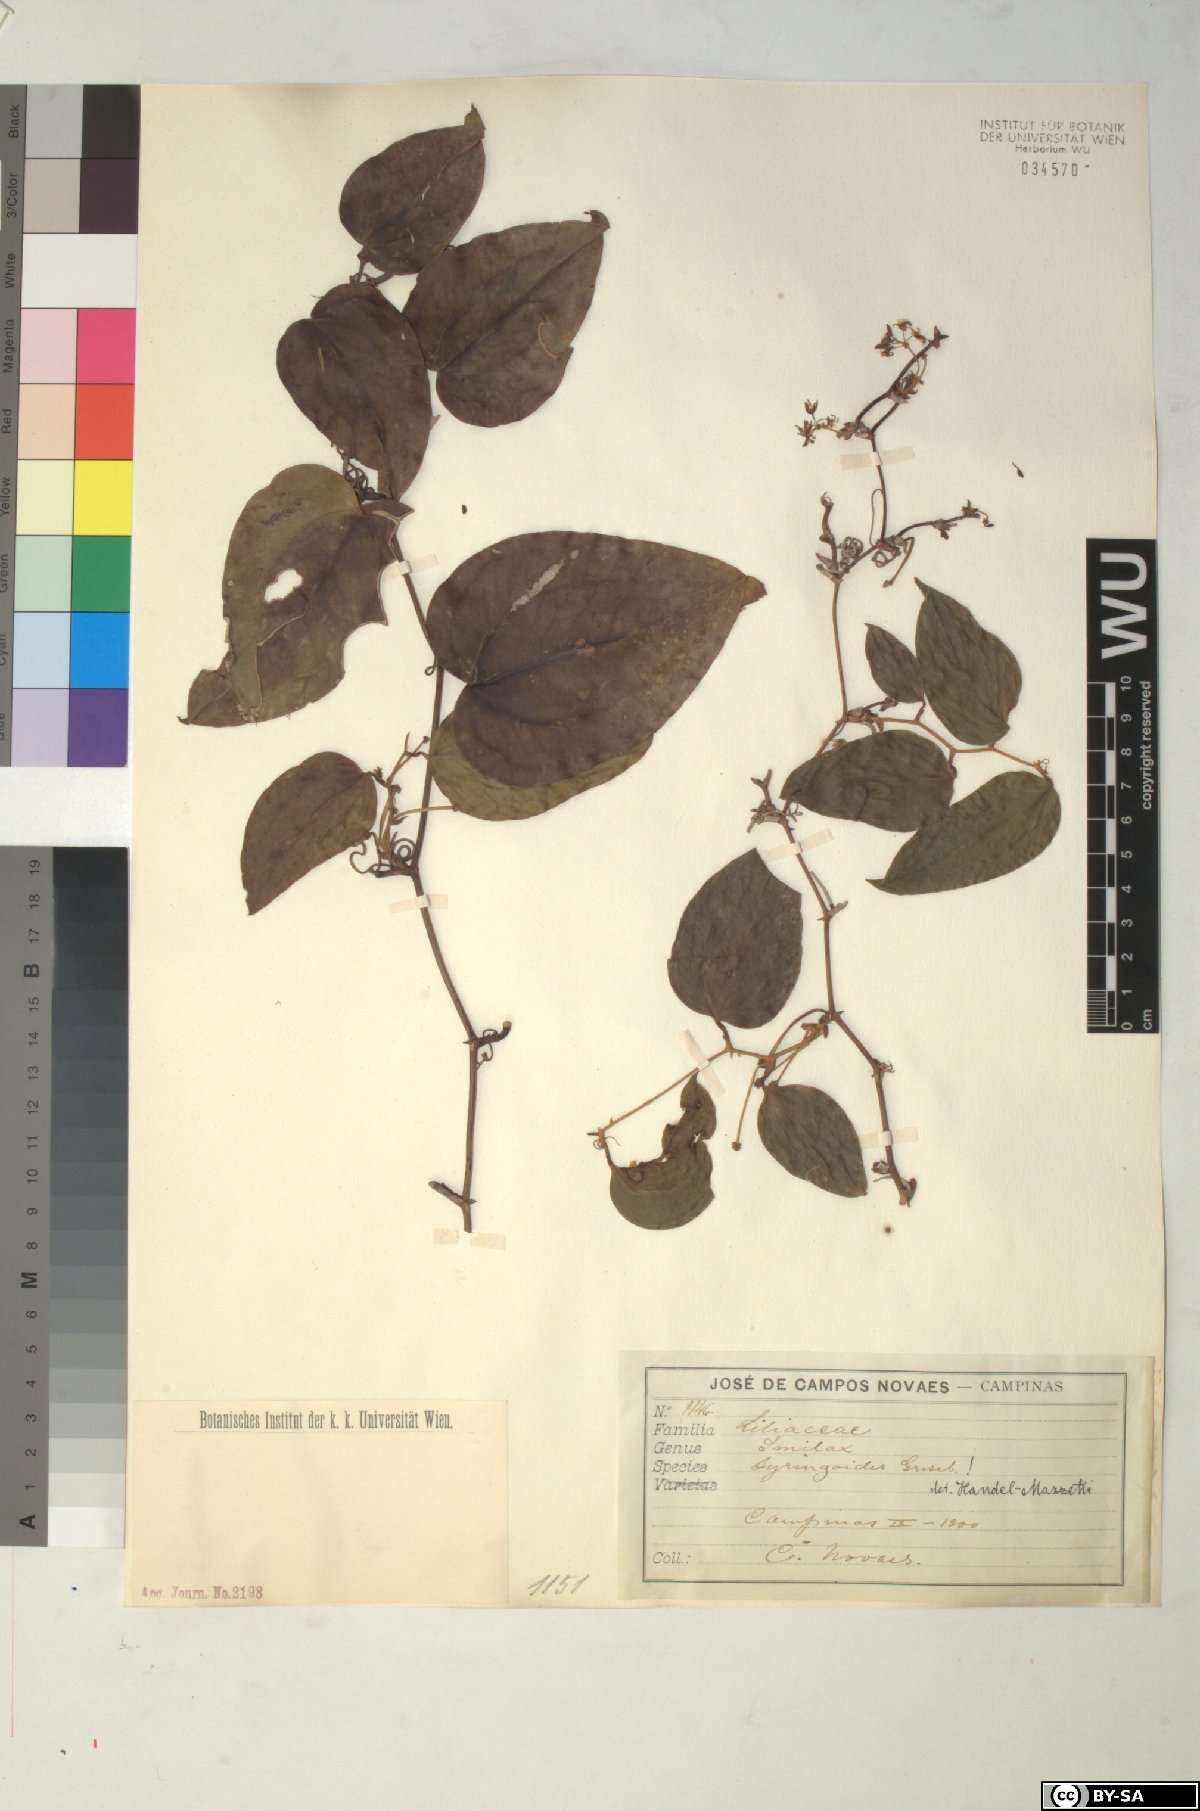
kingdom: Plantae
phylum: Tracheophyta
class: Liliopsida
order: Liliales
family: Smilacaceae
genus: Smilax
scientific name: Smilax fluminensis
